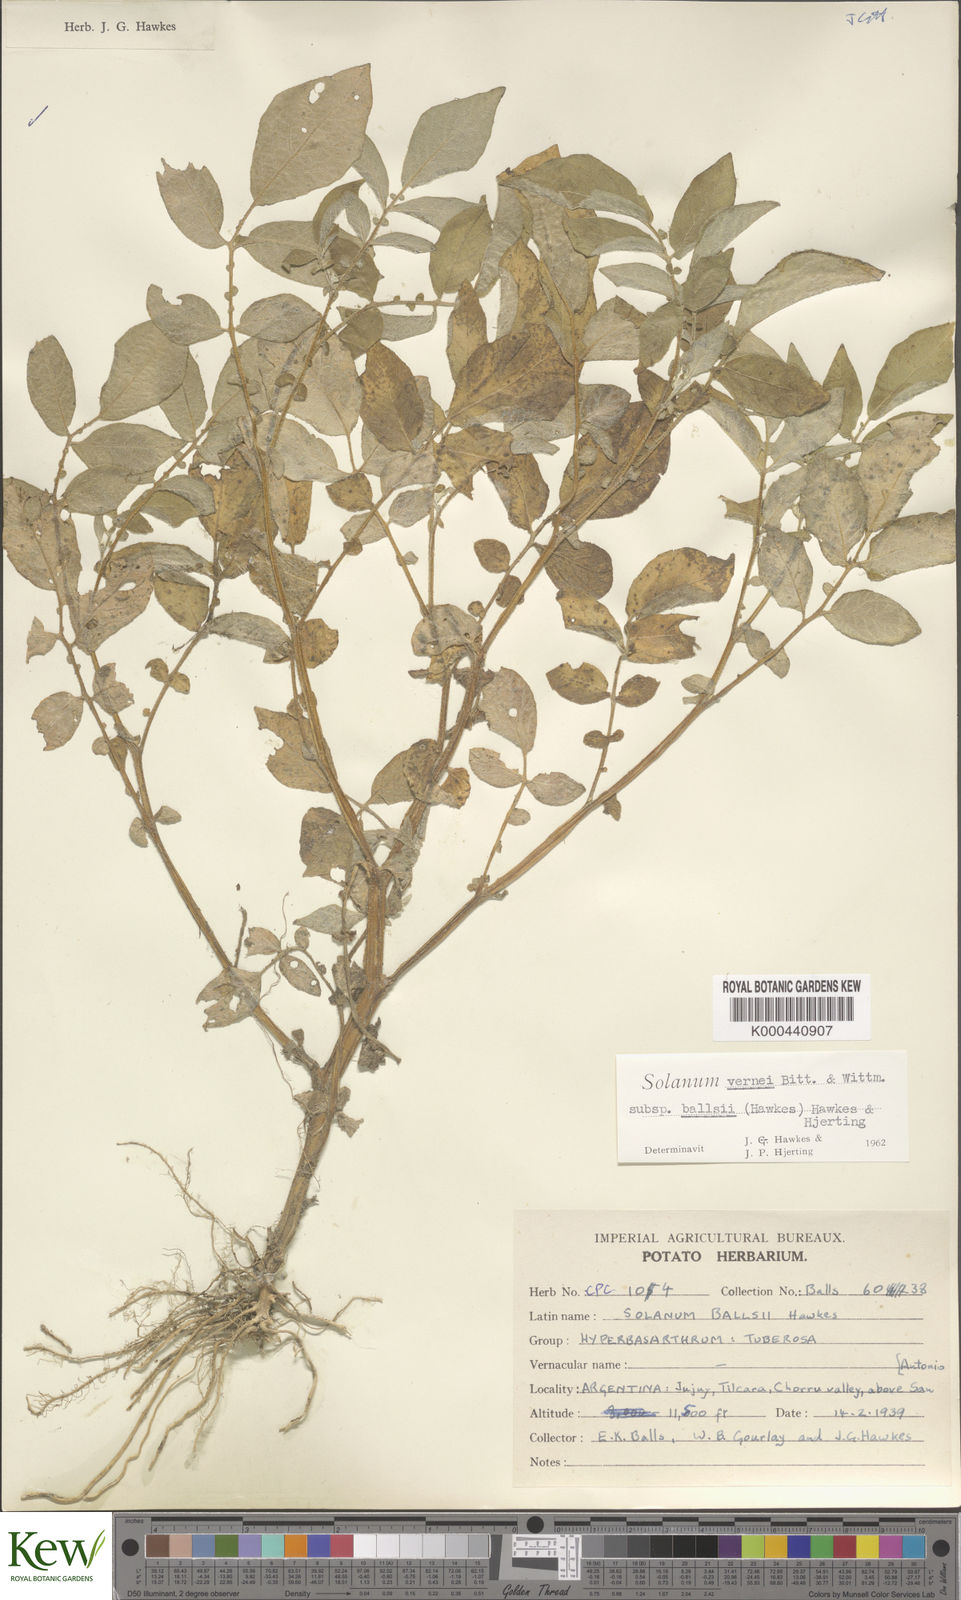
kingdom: Plantae
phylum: Tracheophyta
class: Magnoliopsida
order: Solanales
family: Solanaceae
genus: Solanum
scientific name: Solanum vernei
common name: Purple potato
